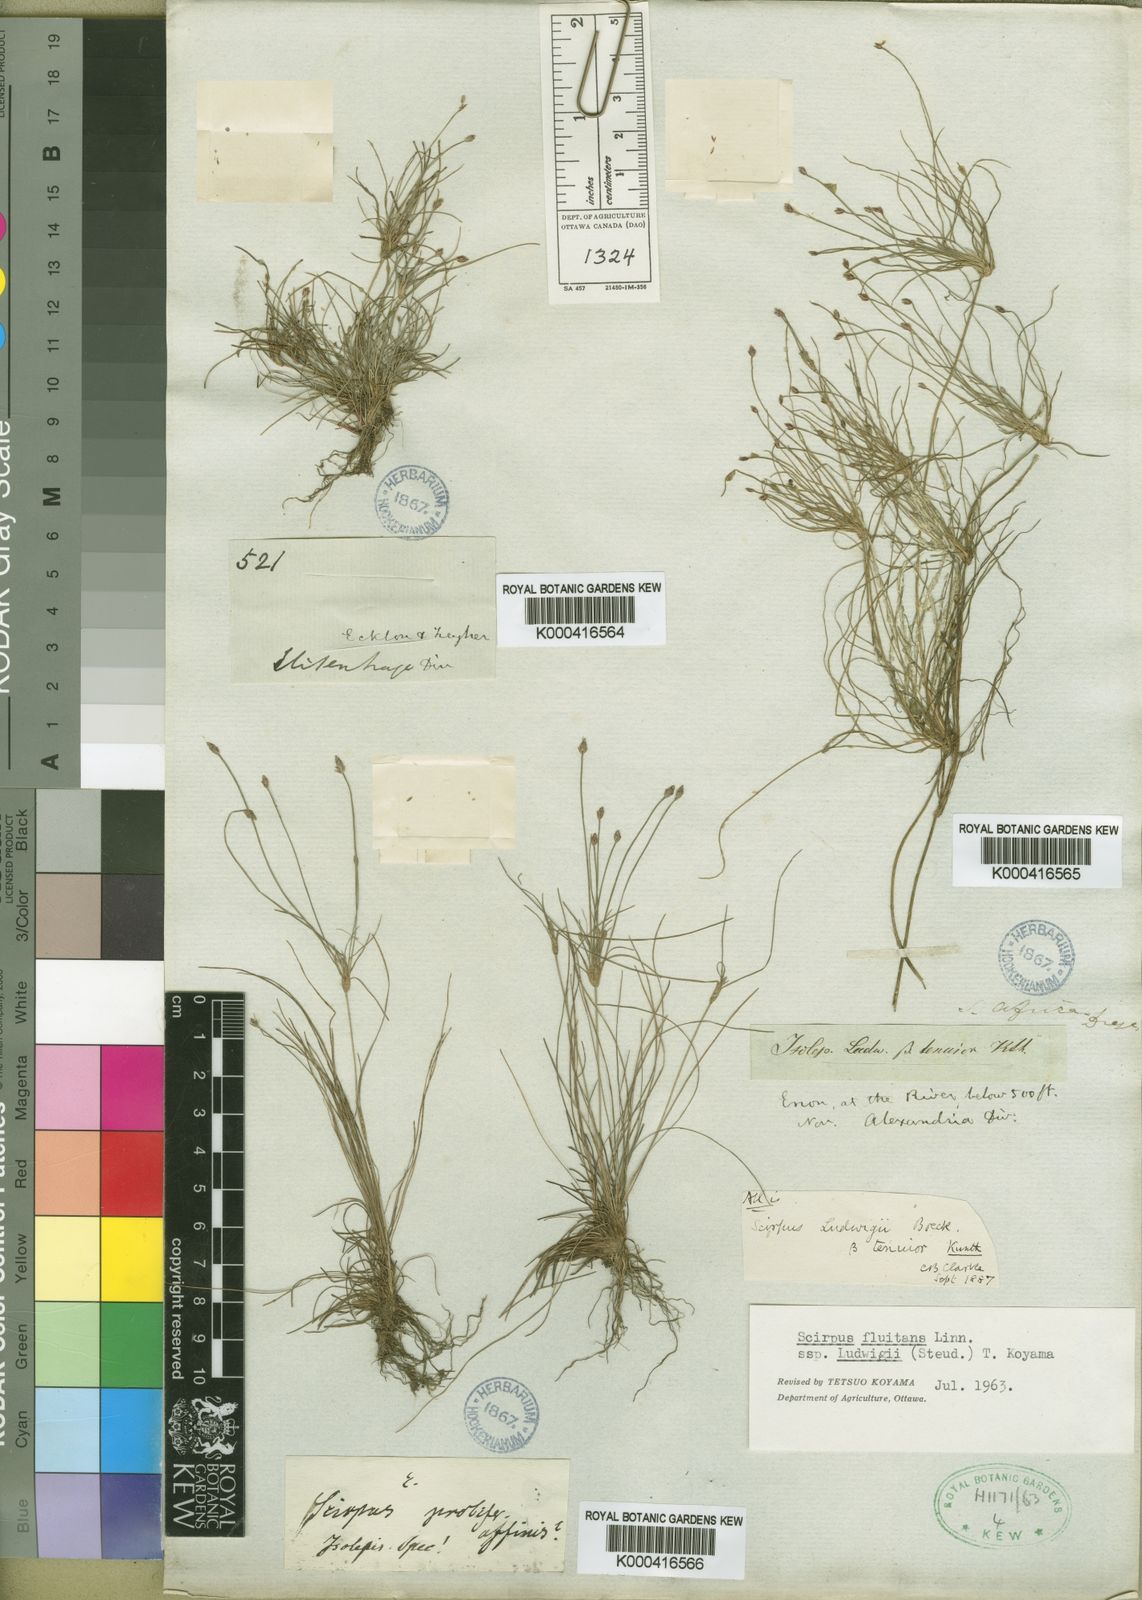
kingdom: Plantae
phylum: Tracheophyta
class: Liliopsida
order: Poales
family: Cyperaceae
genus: Isolepis
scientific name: Isolepis ludwigii
